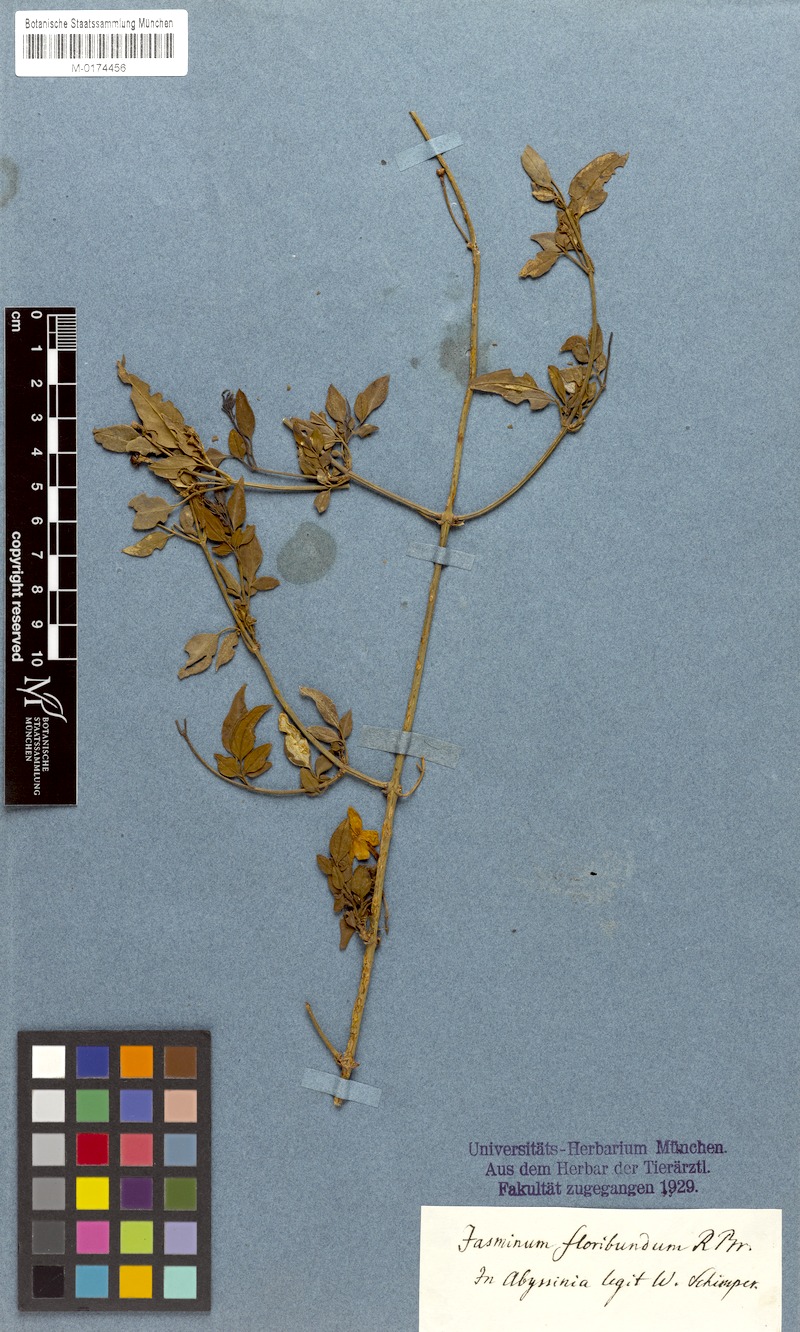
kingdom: Plantae
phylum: Tracheophyta
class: Magnoliopsida
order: Lamiales
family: Oleaceae
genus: Jasminum
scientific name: Jasminum grandiflorum
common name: Catalonian jasmine
